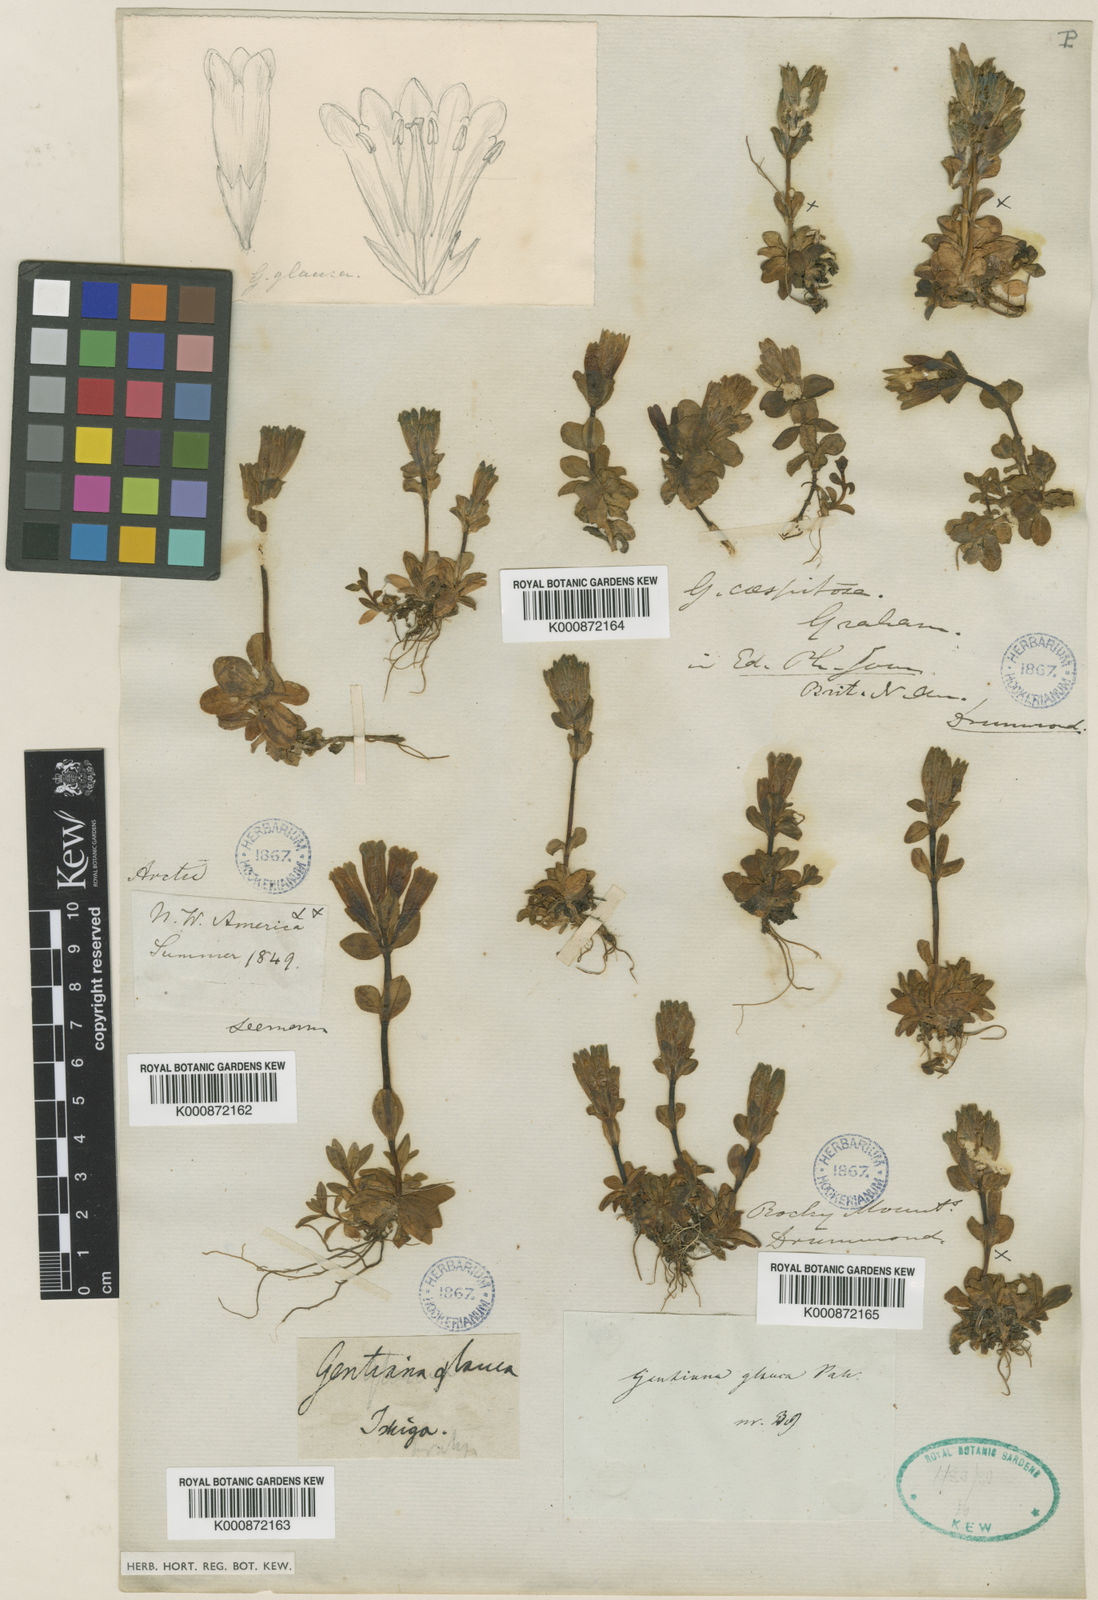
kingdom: Plantae
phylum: Tracheophyta
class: Magnoliopsida
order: Gentianales
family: Gentianaceae
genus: Gentiana
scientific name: Gentiana glauca
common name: Alpine gentian
